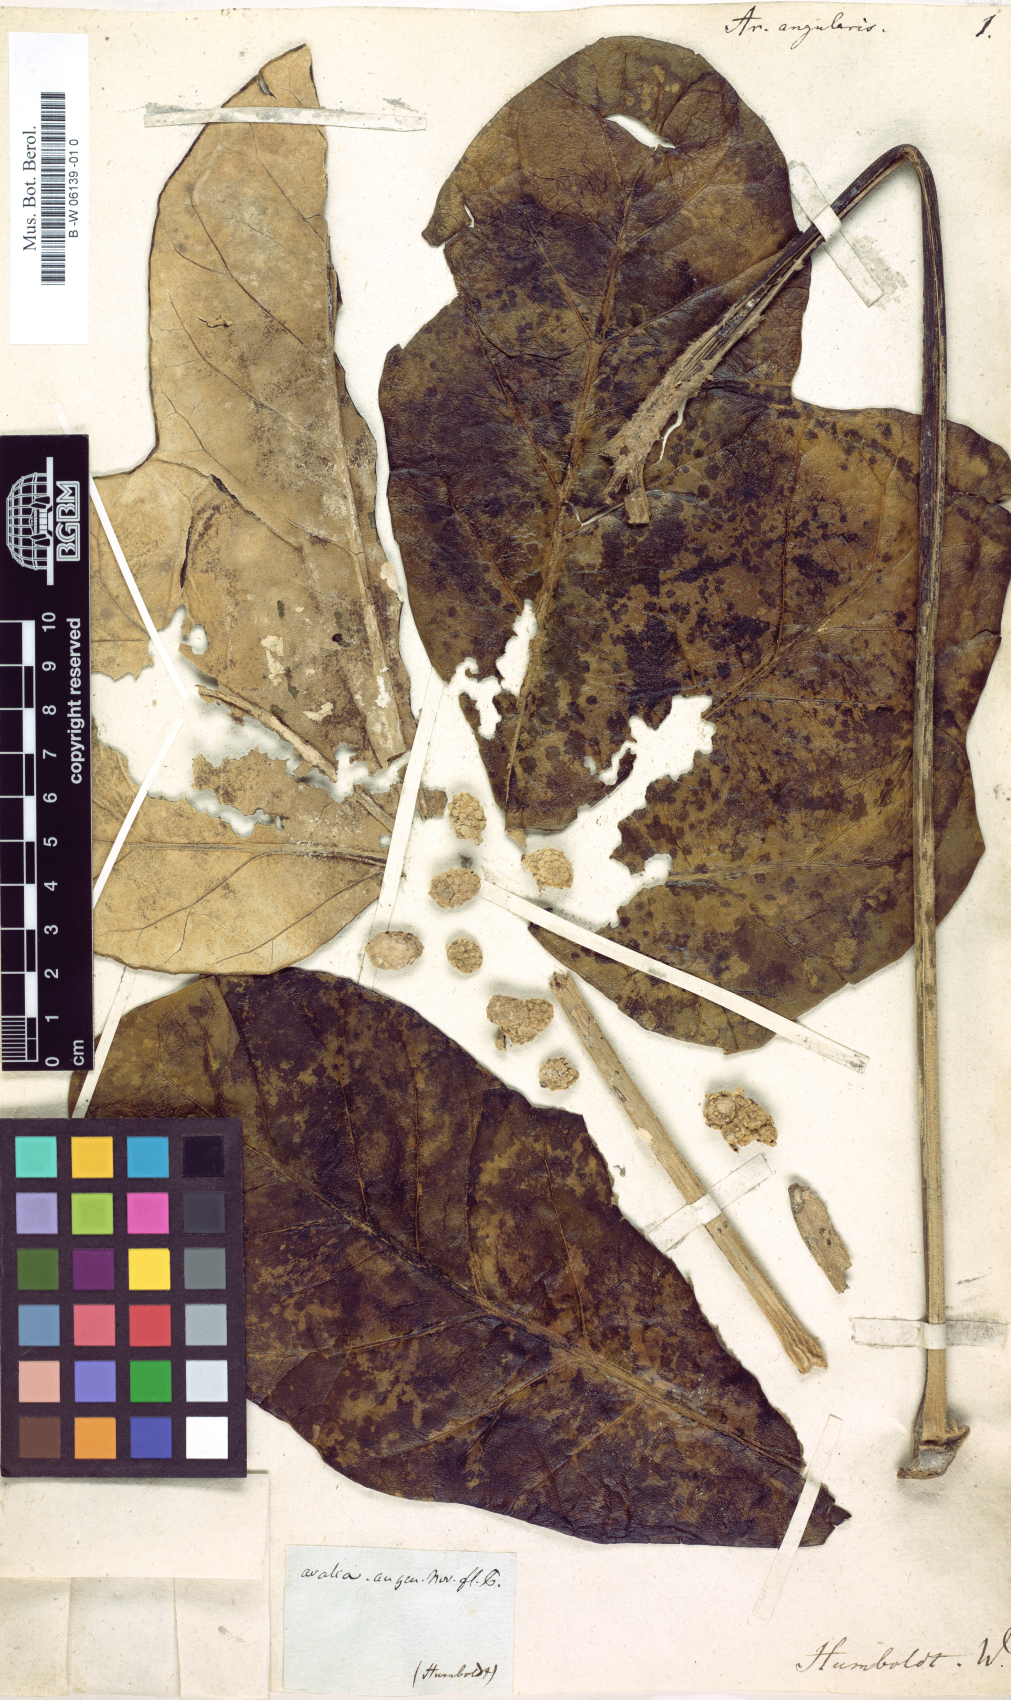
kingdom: Plantae
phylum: Tracheophyta
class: Magnoliopsida
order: Apiales
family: Araliaceae
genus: Oreopanax
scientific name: Oreopanax angularis
